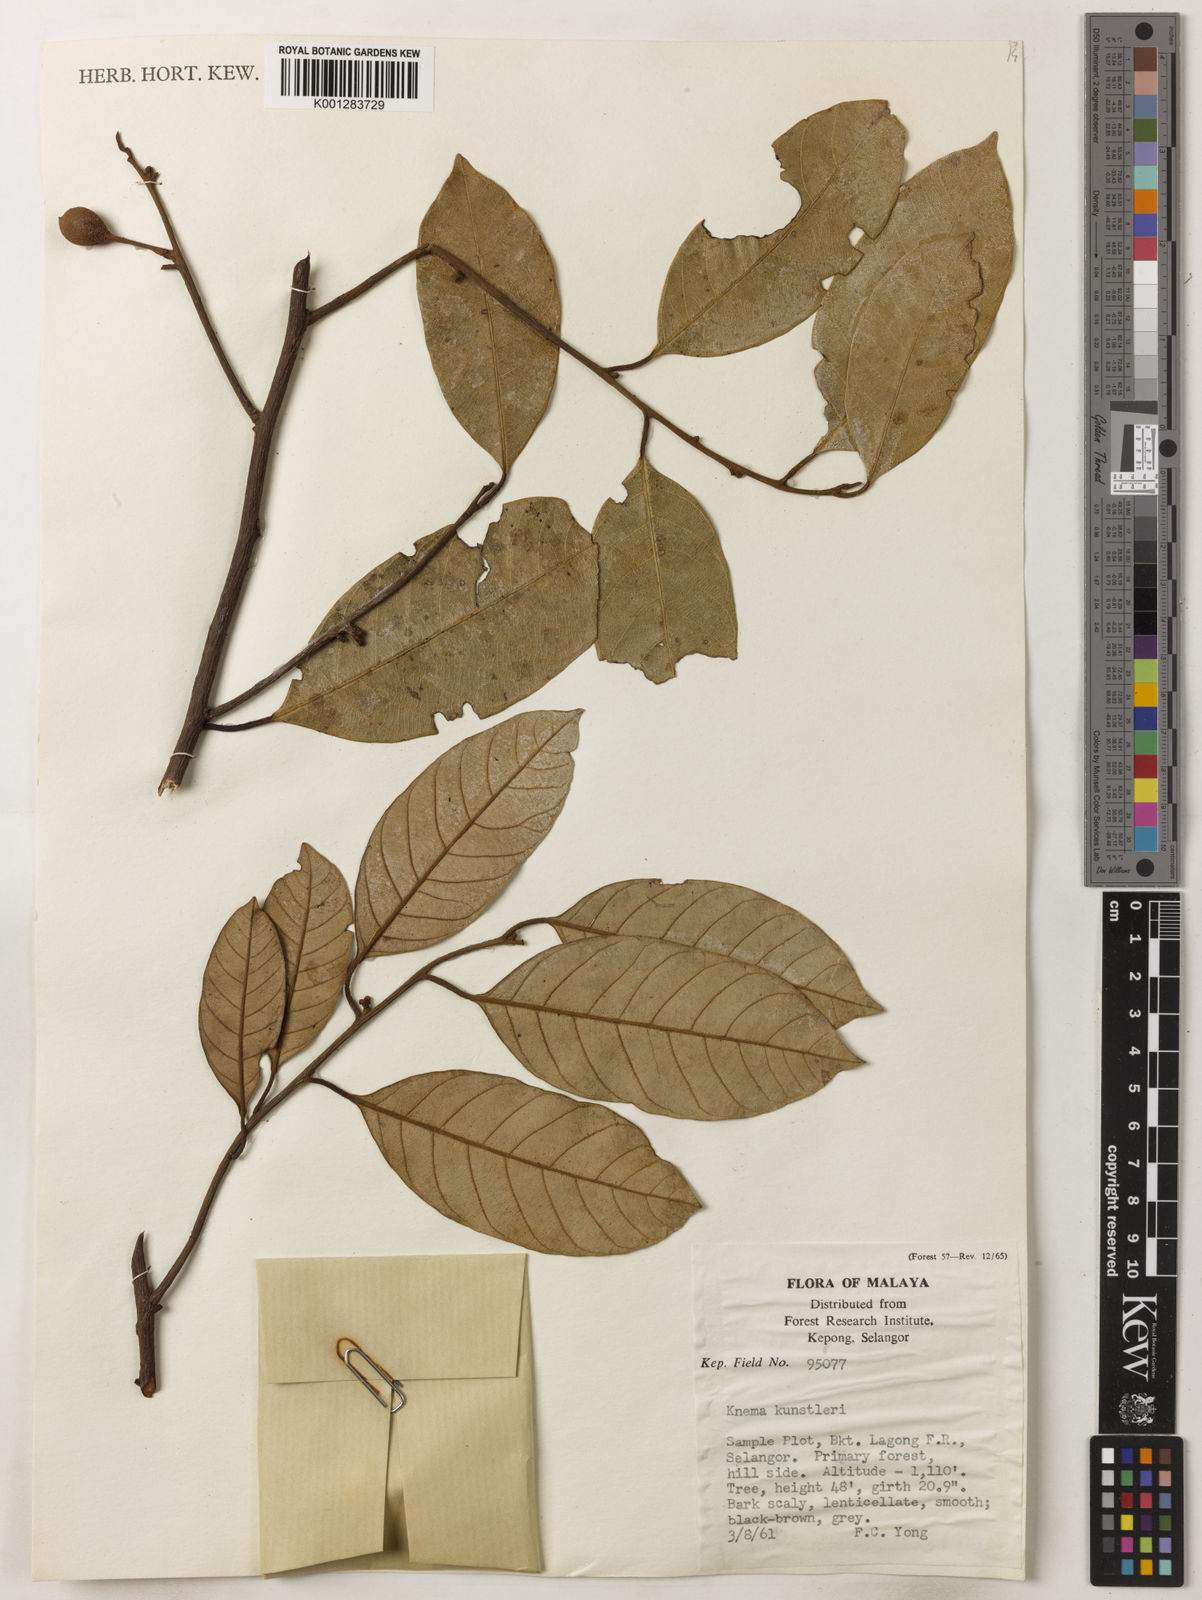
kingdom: Plantae
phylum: Tracheophyta
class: Magnoliopsida
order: Magnoliales
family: Myristicaceae
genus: Knema
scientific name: Knema kunstleri
